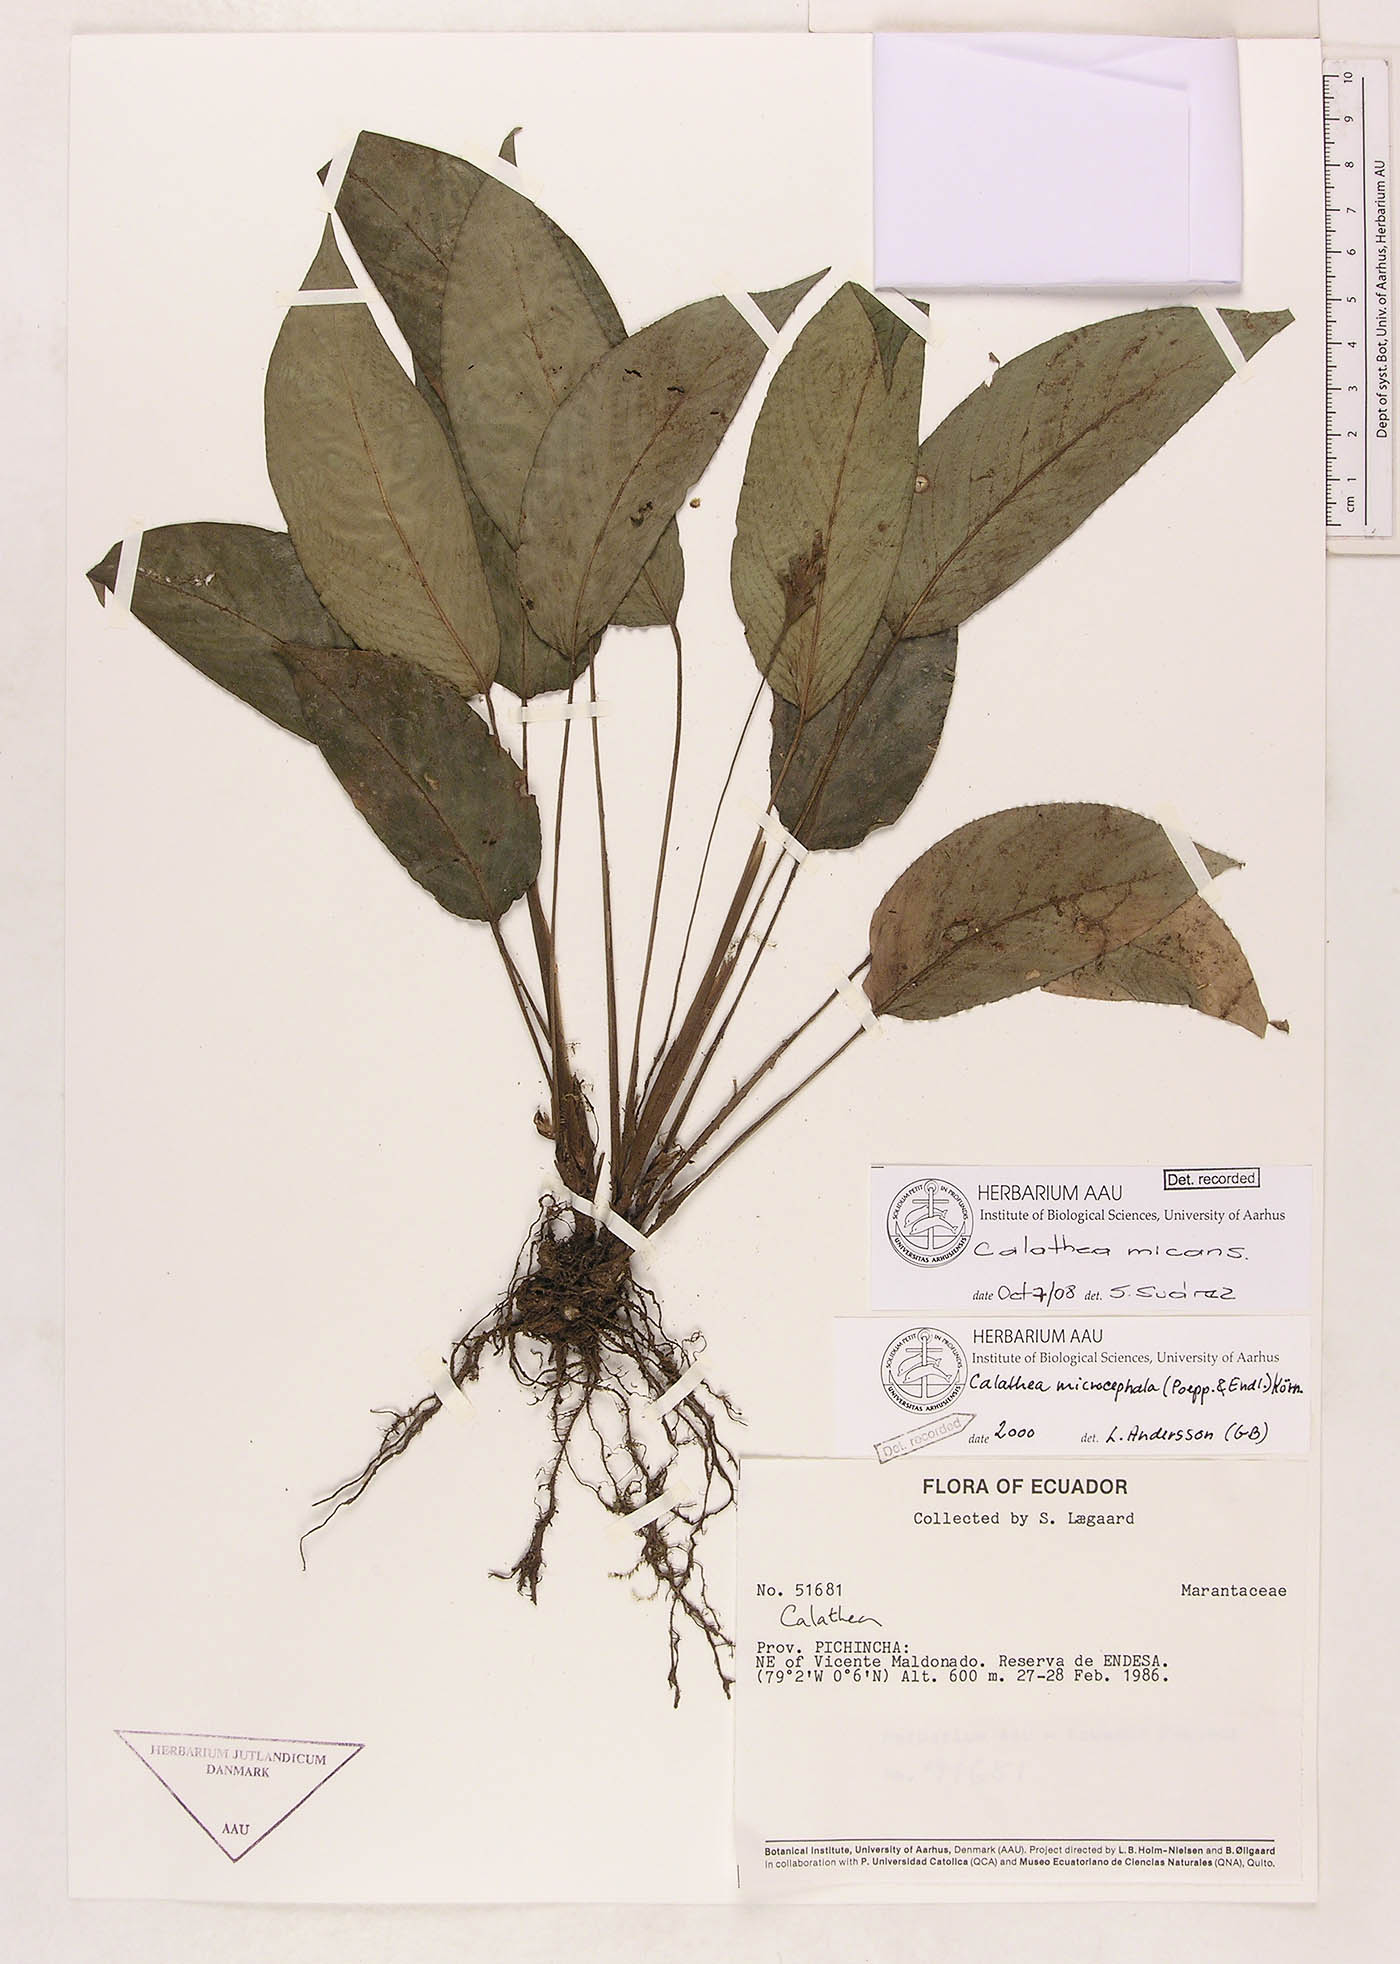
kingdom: Plantae
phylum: Tracheophyta
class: Liliopsida
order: Zingiberales
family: Marantaceae
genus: Goeppertia
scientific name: Goeppertia micans
